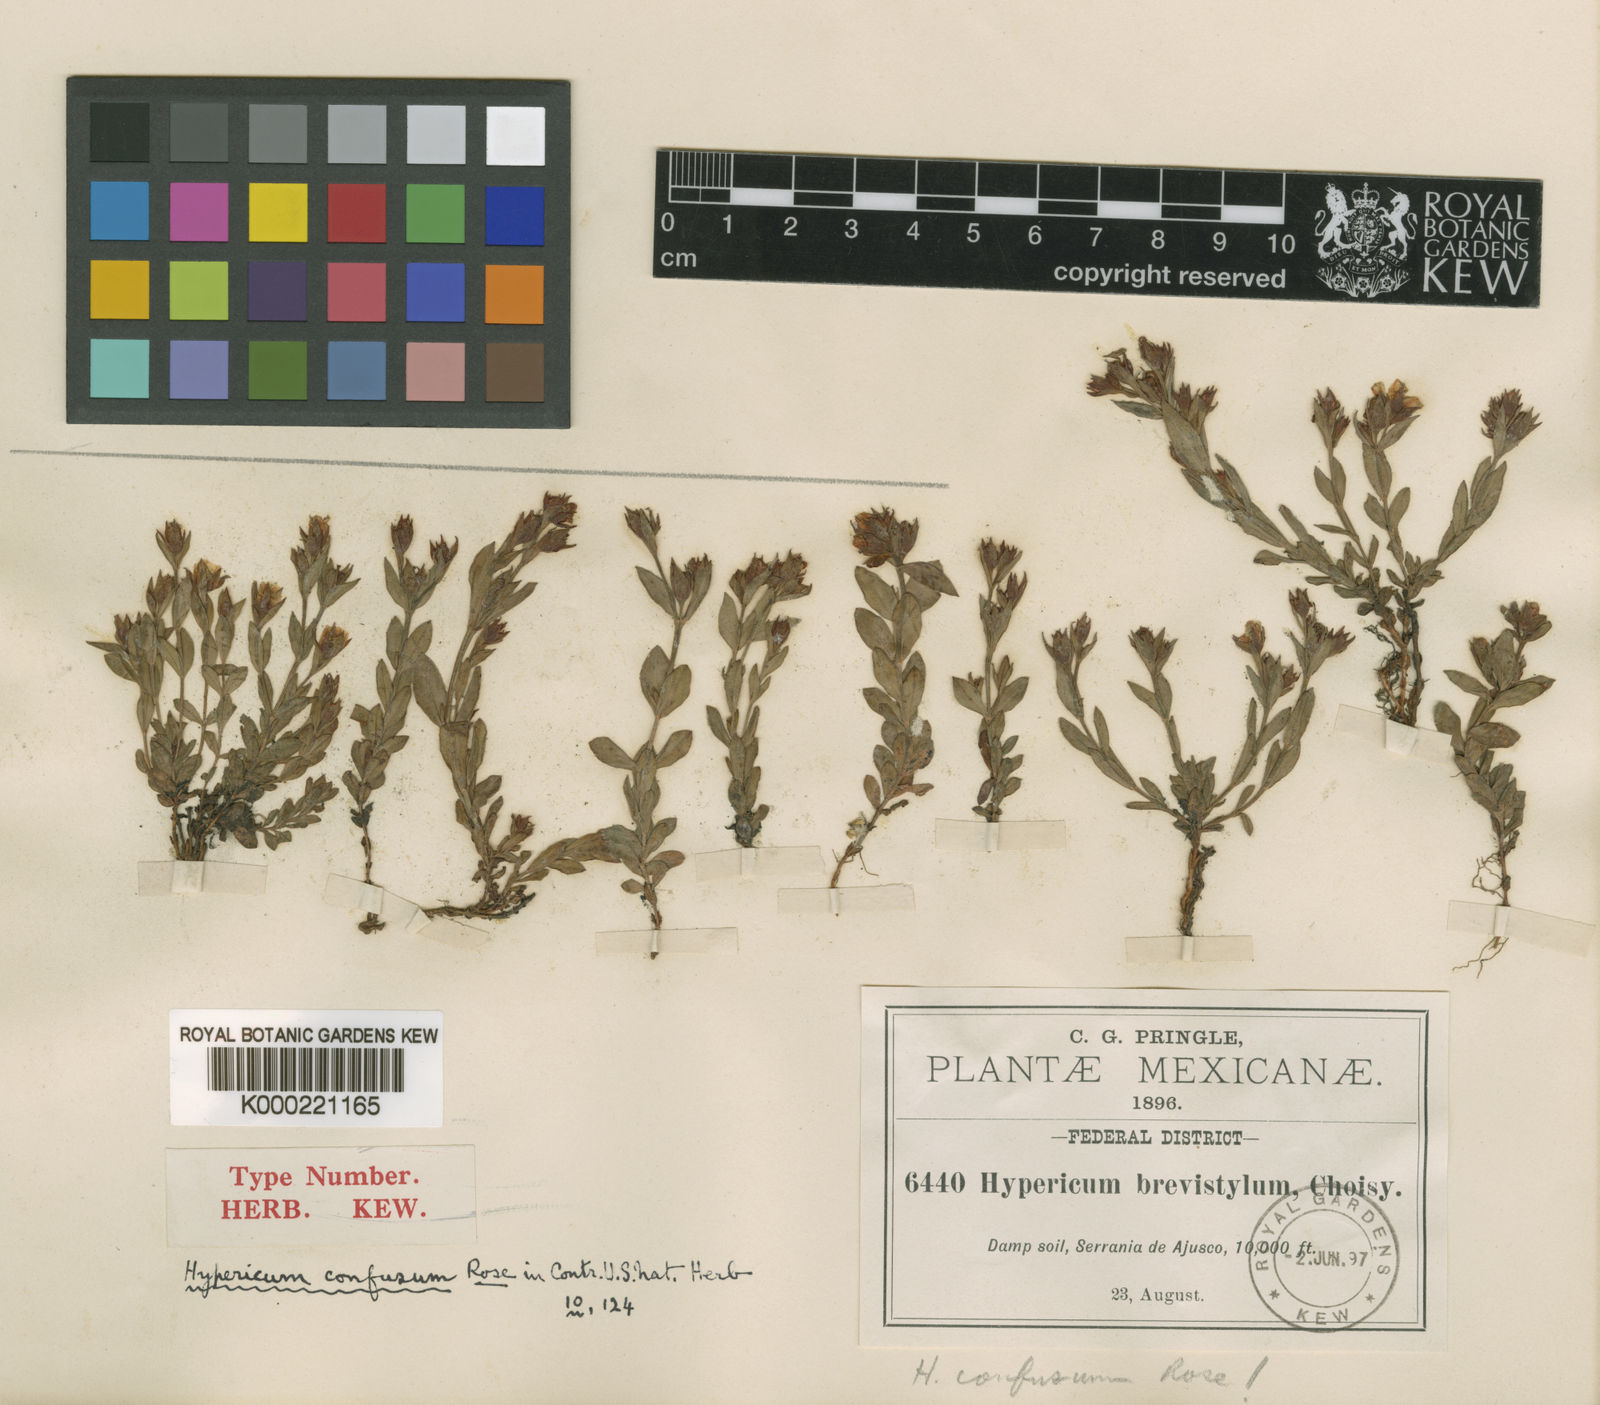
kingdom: Plantae
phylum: Tracheophyta
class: Magnoliopsida
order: Malpighiales
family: Hypericaceae
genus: Hypericum
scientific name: Hypericum
